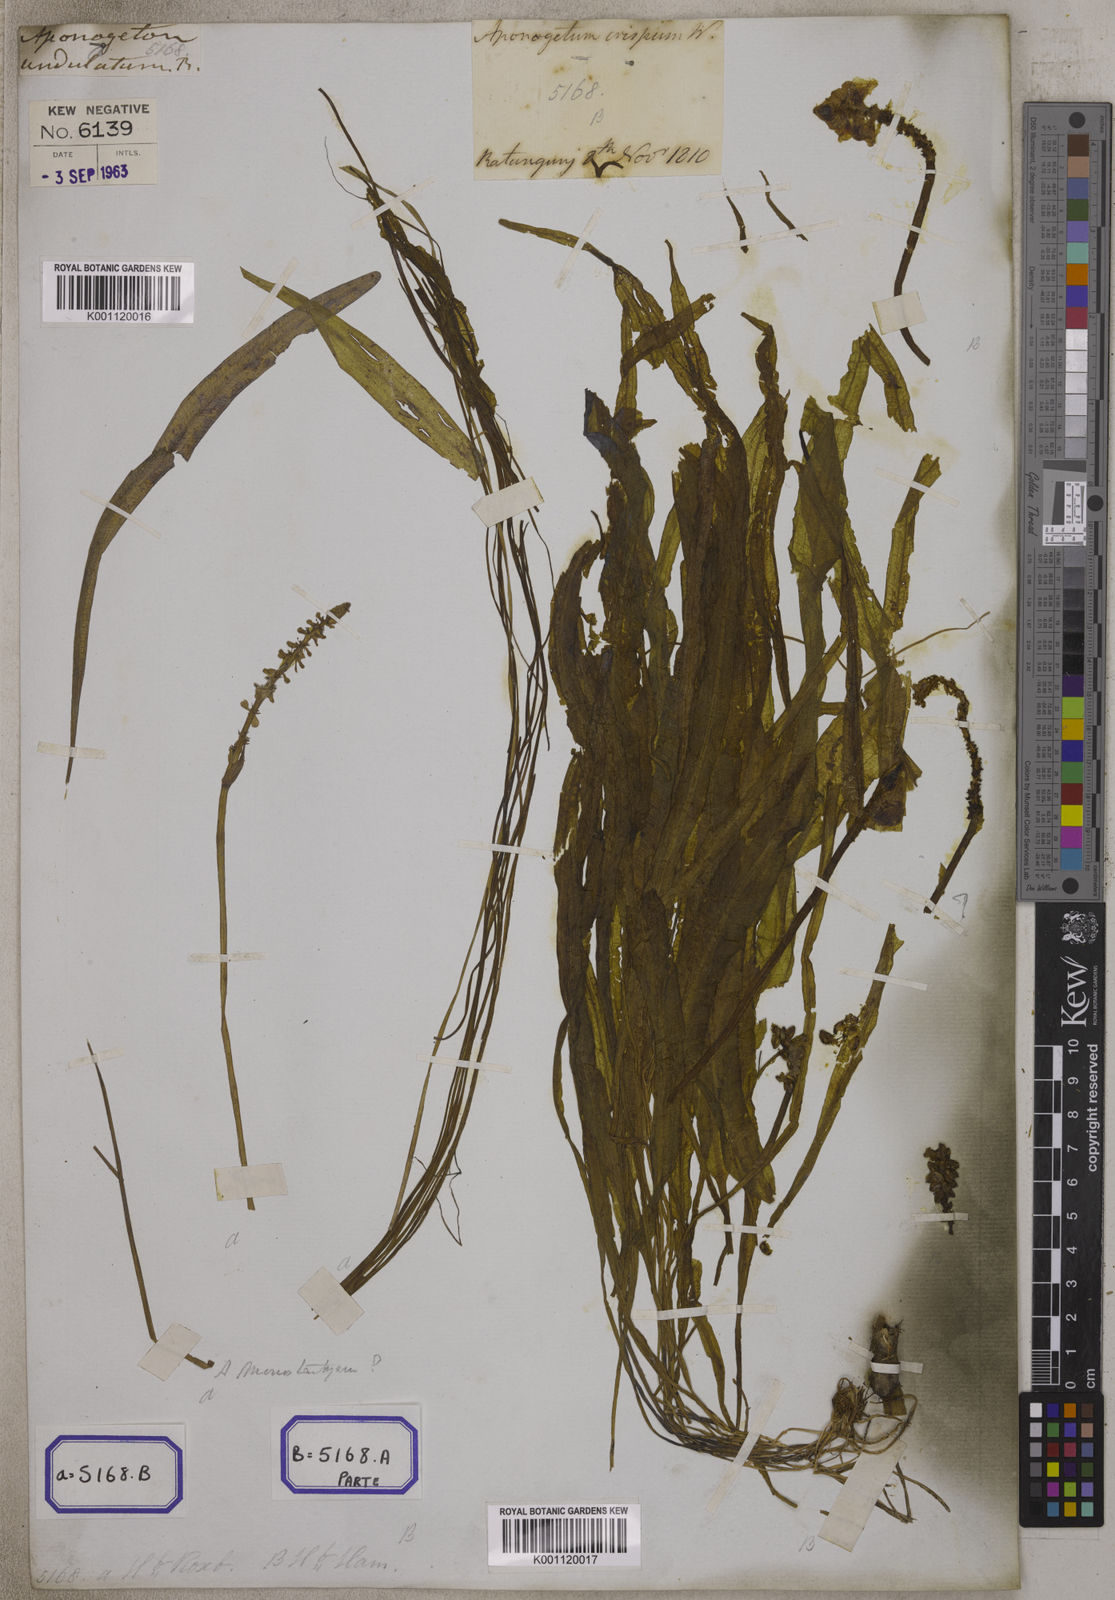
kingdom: Plantae
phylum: Tracheophyta
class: Liliopsida
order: Alismatales
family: Aponogetonaceae
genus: Aponogeton
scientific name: Aponogeton crispus
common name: Crinkled aponogeton
